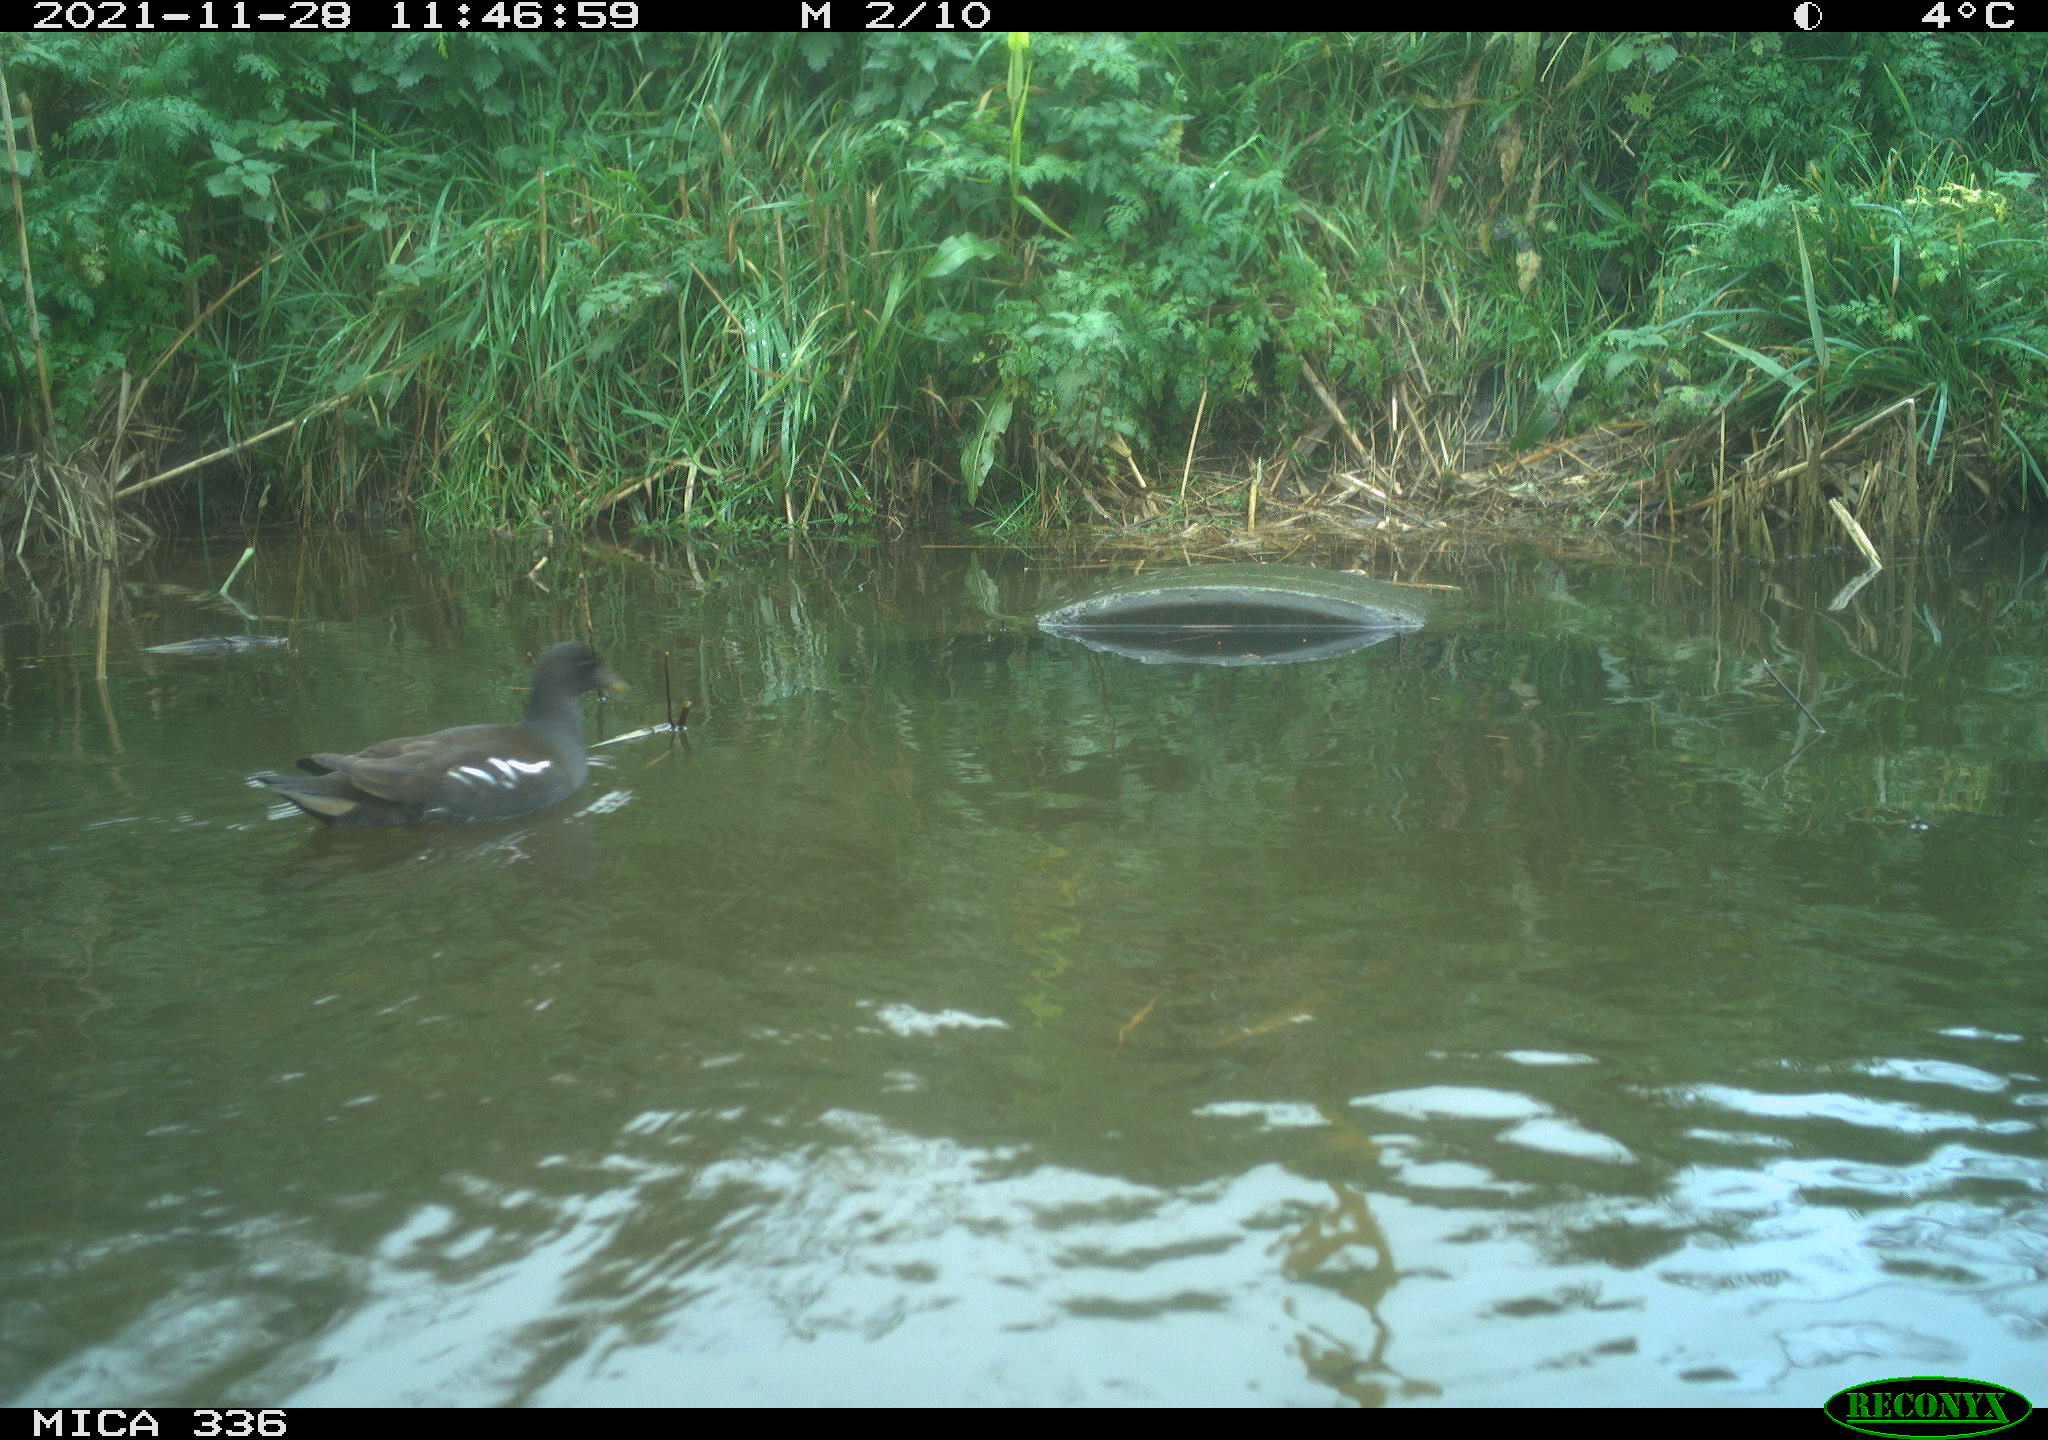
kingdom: Animalia
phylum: Chordata
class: Aves
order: Gruiformes
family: Rallidae
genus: Gallinula
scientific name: Gallinula chloropus
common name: Common moorhen
